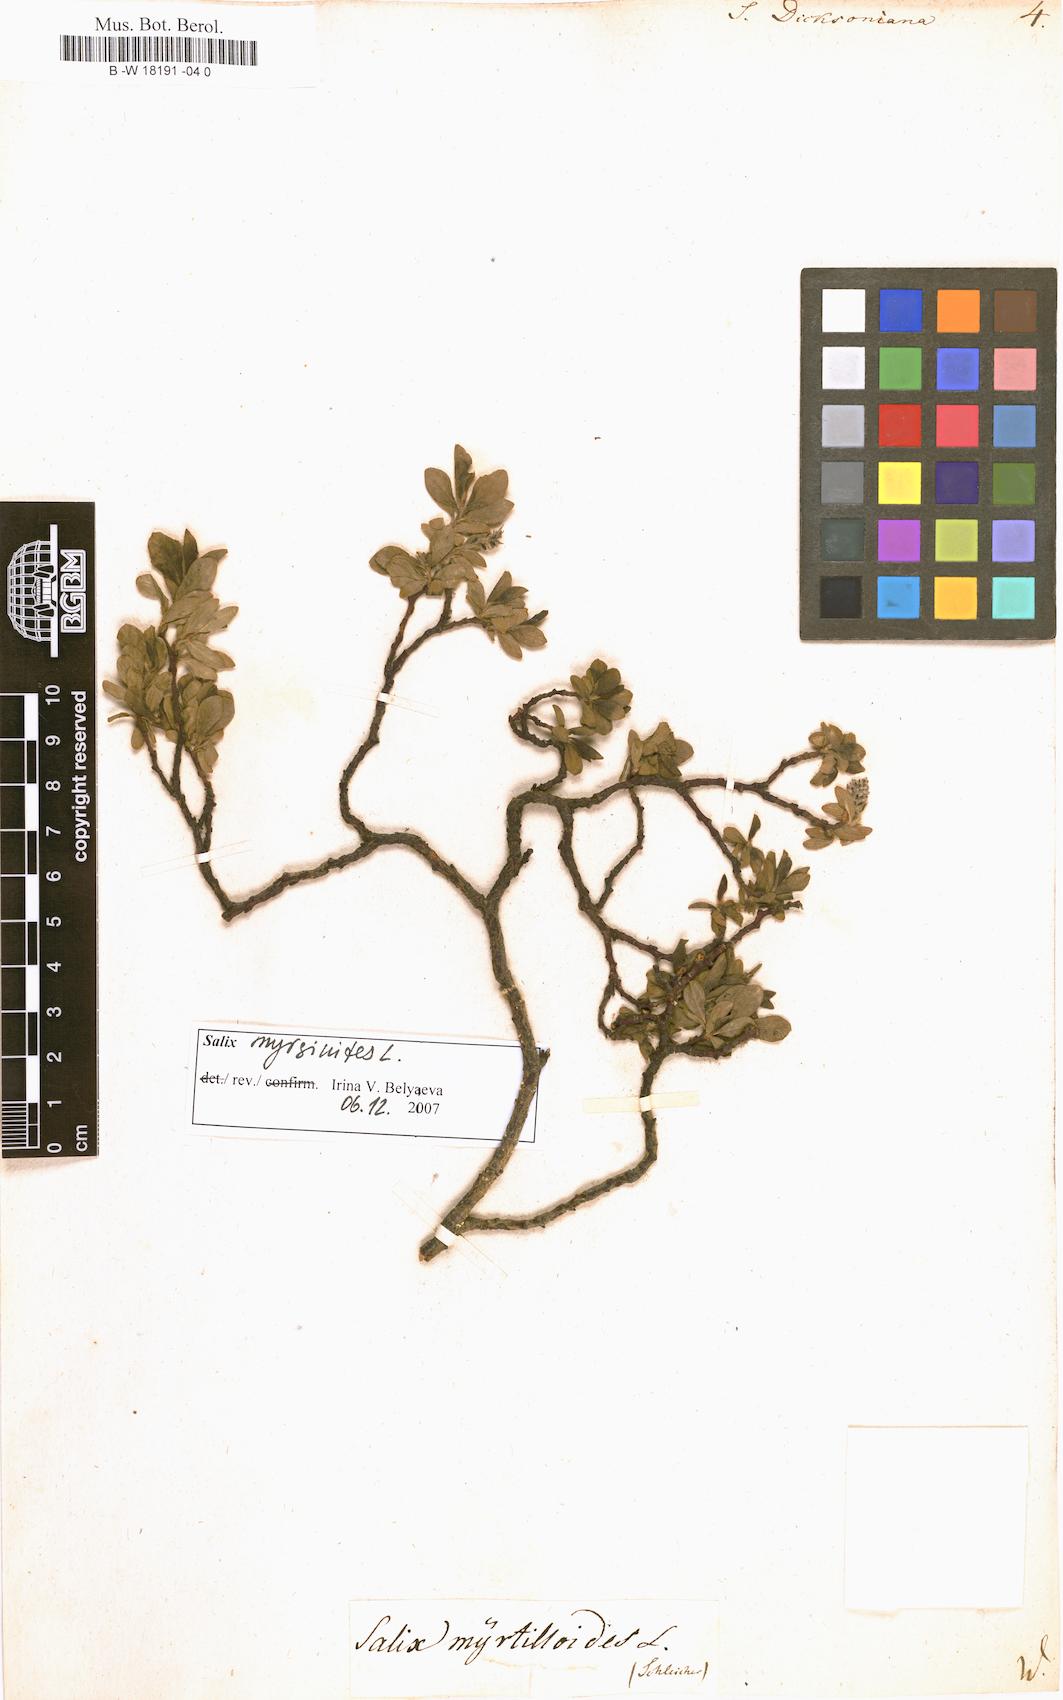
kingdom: Plantae
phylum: Tracheophyta
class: Magnoliopsida
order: Malpighiales
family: Salicaceae
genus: Salix
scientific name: Salix phylicifolia
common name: Tea-leaved willow
